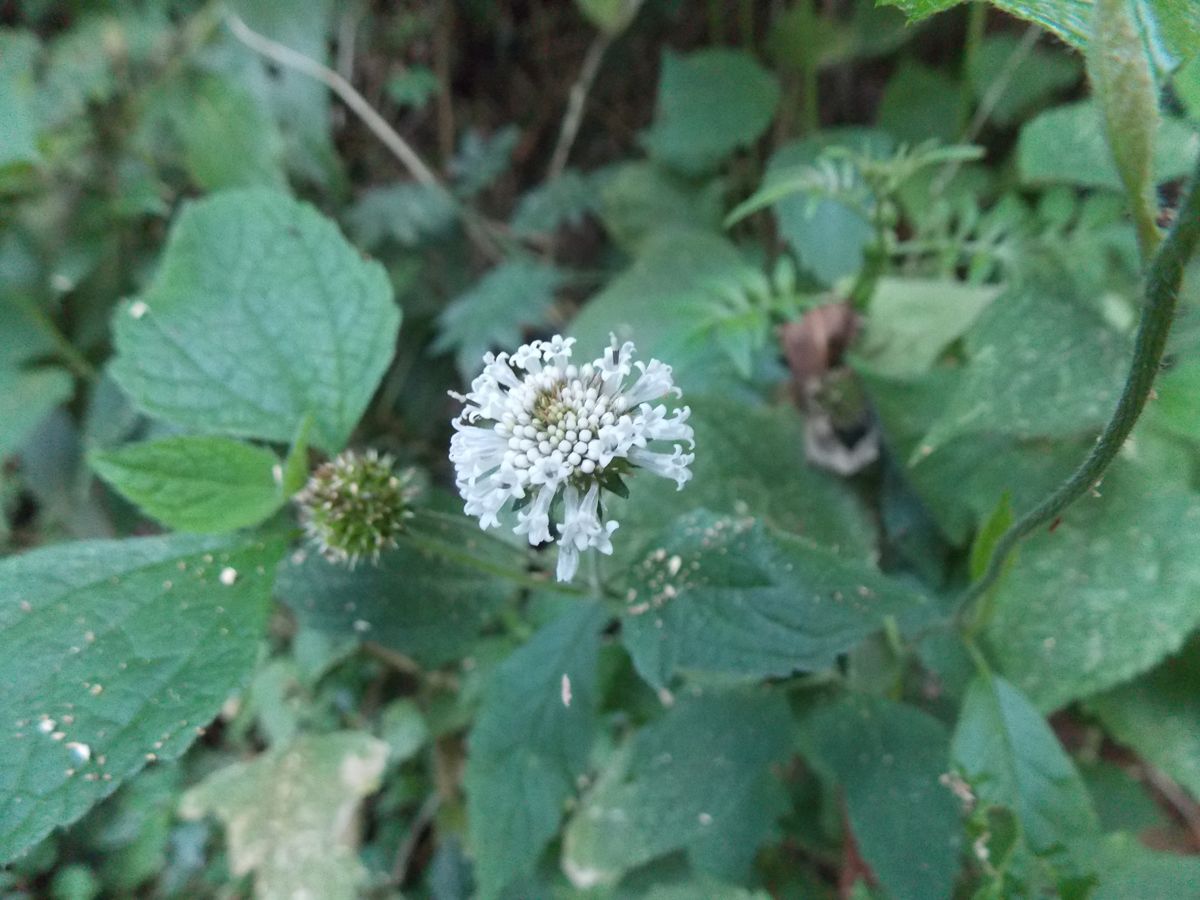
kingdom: Plantae
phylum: Tracheophyta
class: Magnoliopsida
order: Asterales
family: Asteraceae
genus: Melanthera
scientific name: Melanthera nivea
